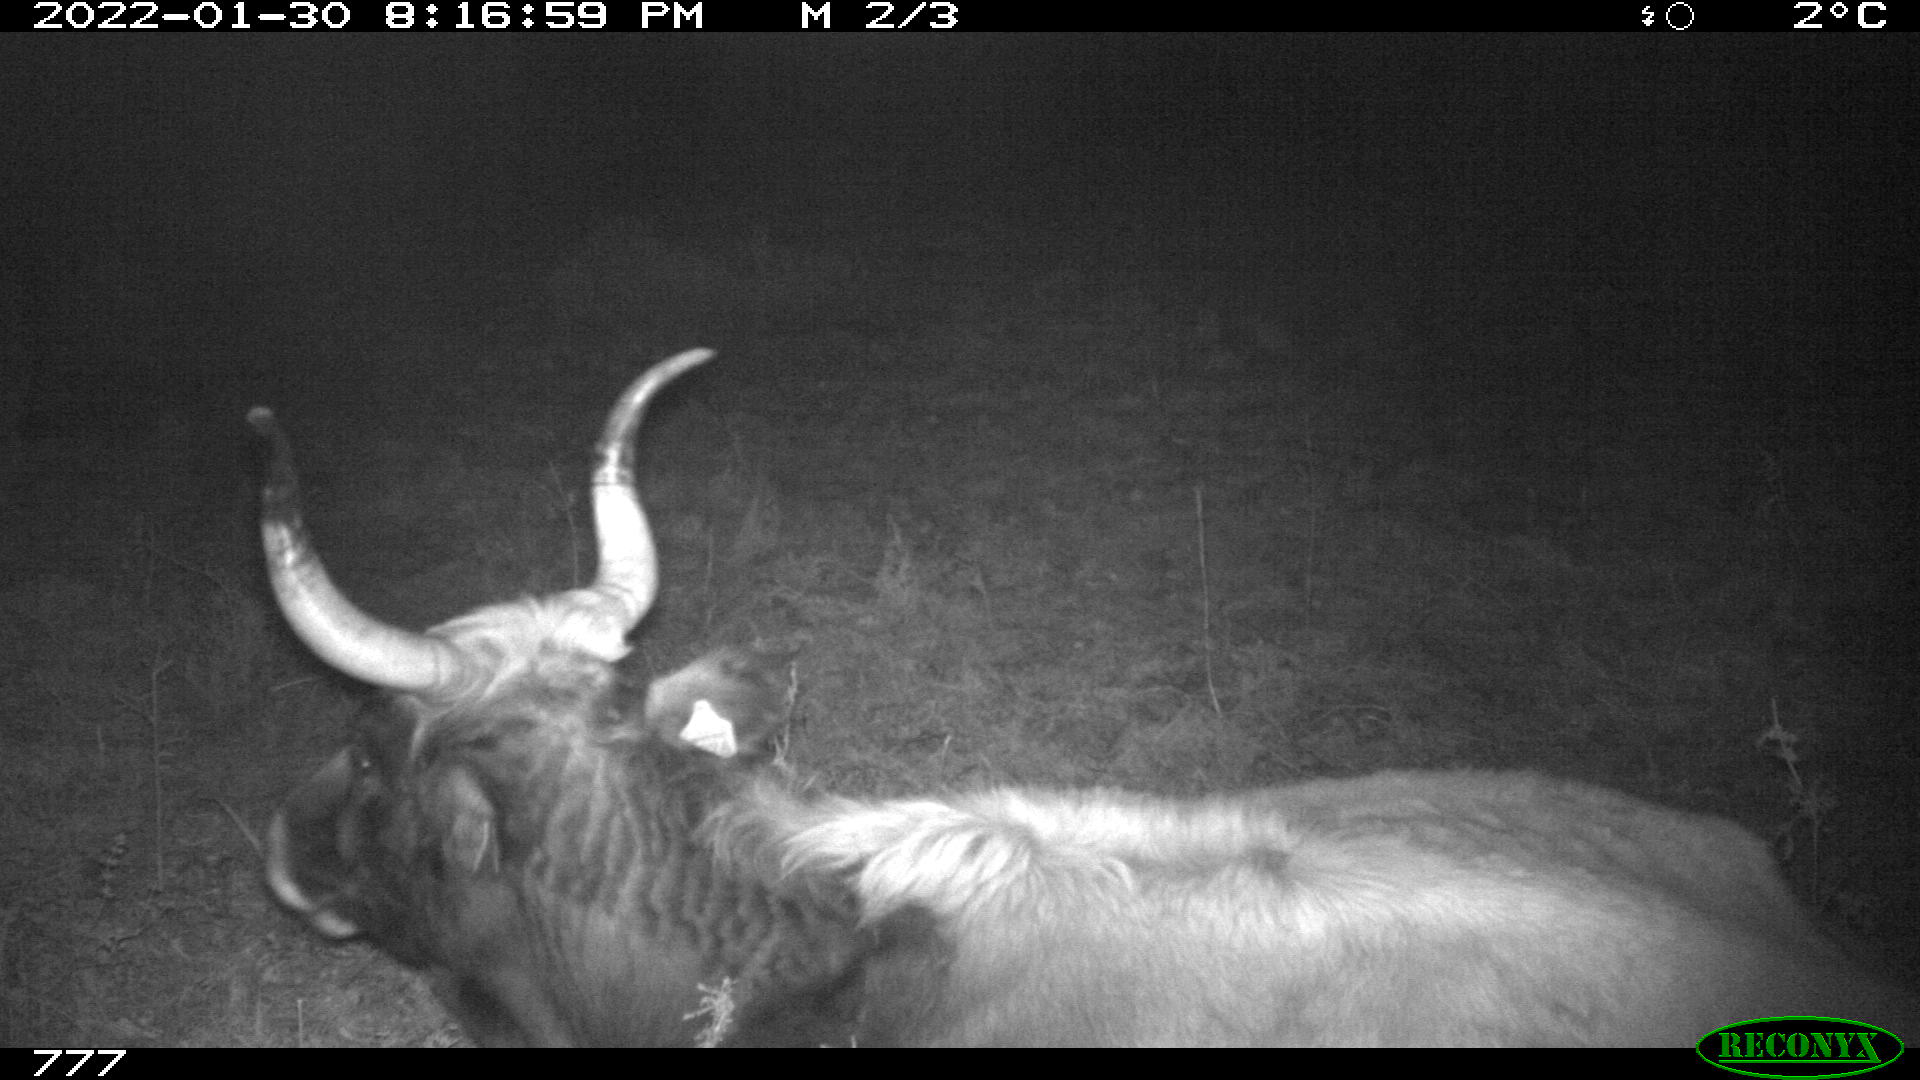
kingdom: Animalia
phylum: Chordata
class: Mammalia
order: Artiodactyla
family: Bovidae
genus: Bos
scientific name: Bos taurus
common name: Domesticated cattle
